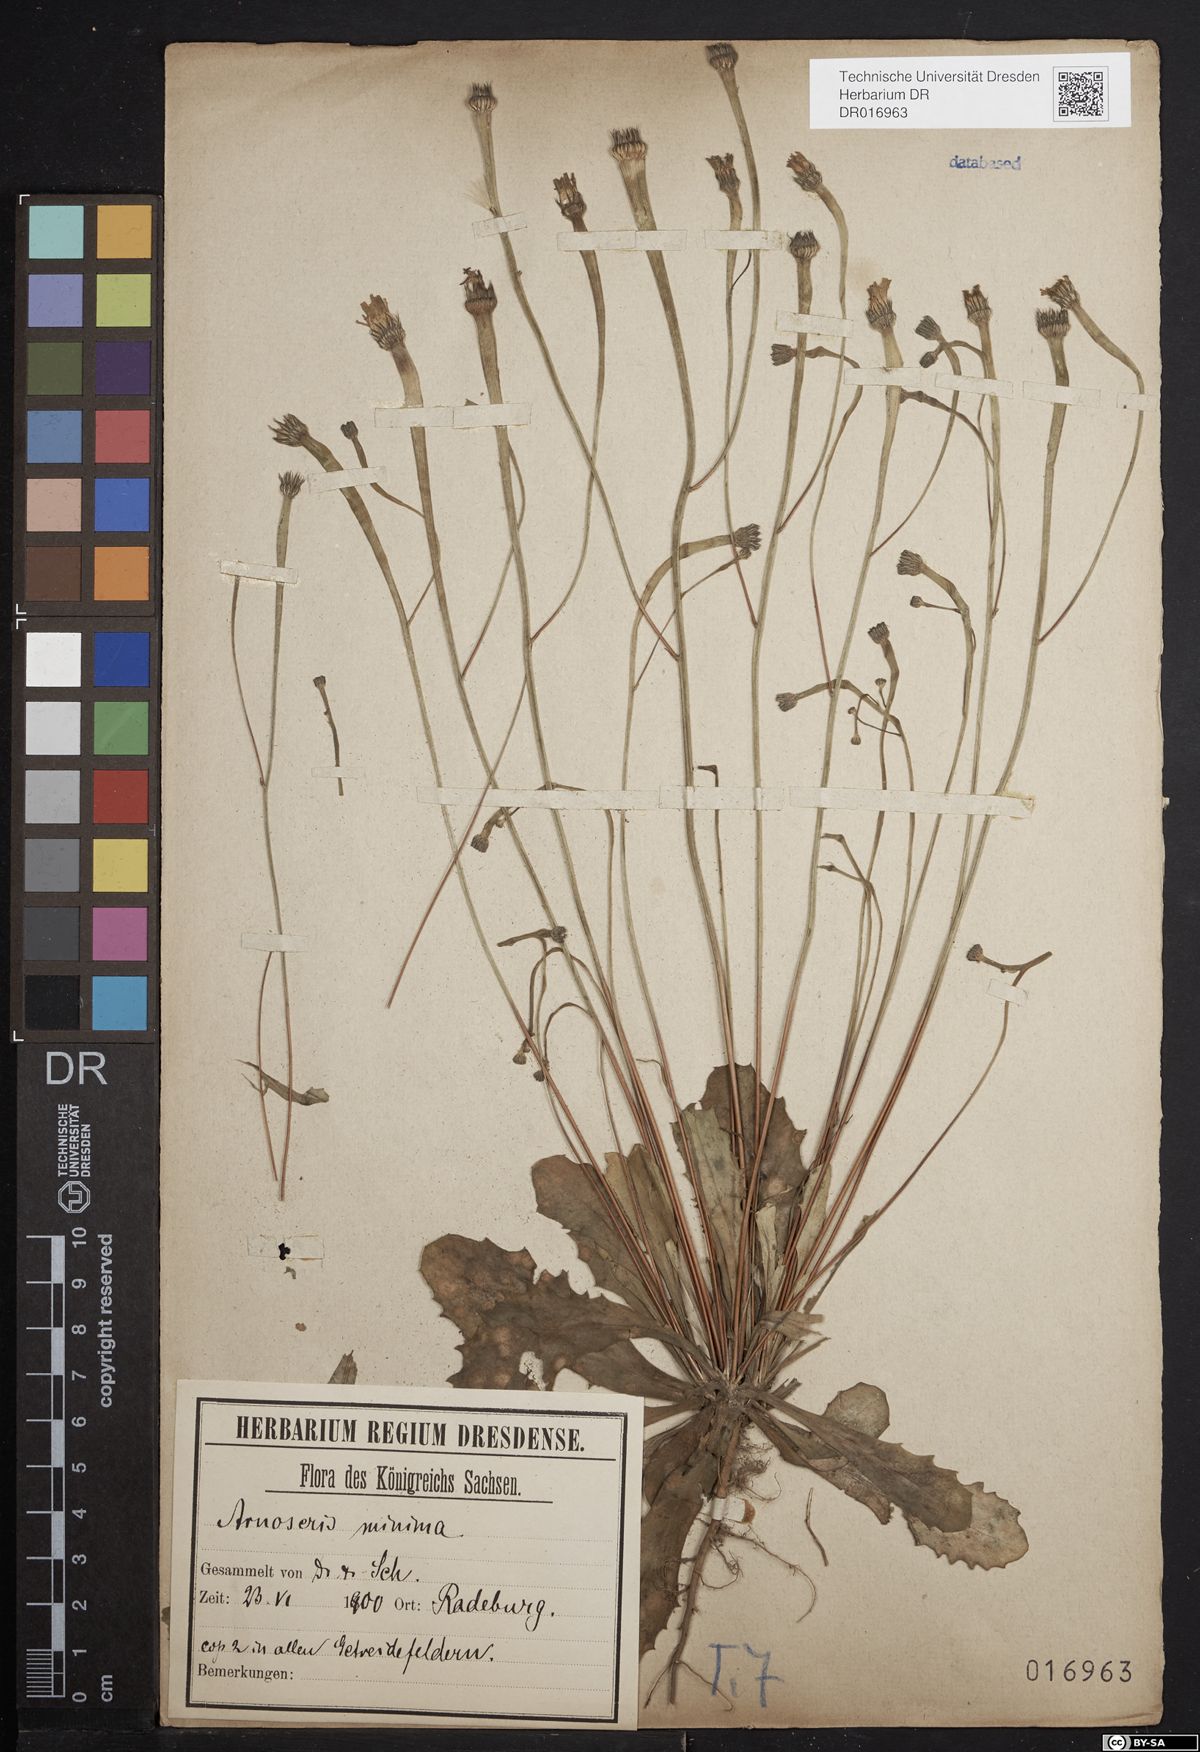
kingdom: Plantae
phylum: Tracheophyta
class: Magnoliopsida
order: Asterales
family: Asteraceae
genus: Arnoseris
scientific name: Arnoseris minima
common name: Lamb's succory
